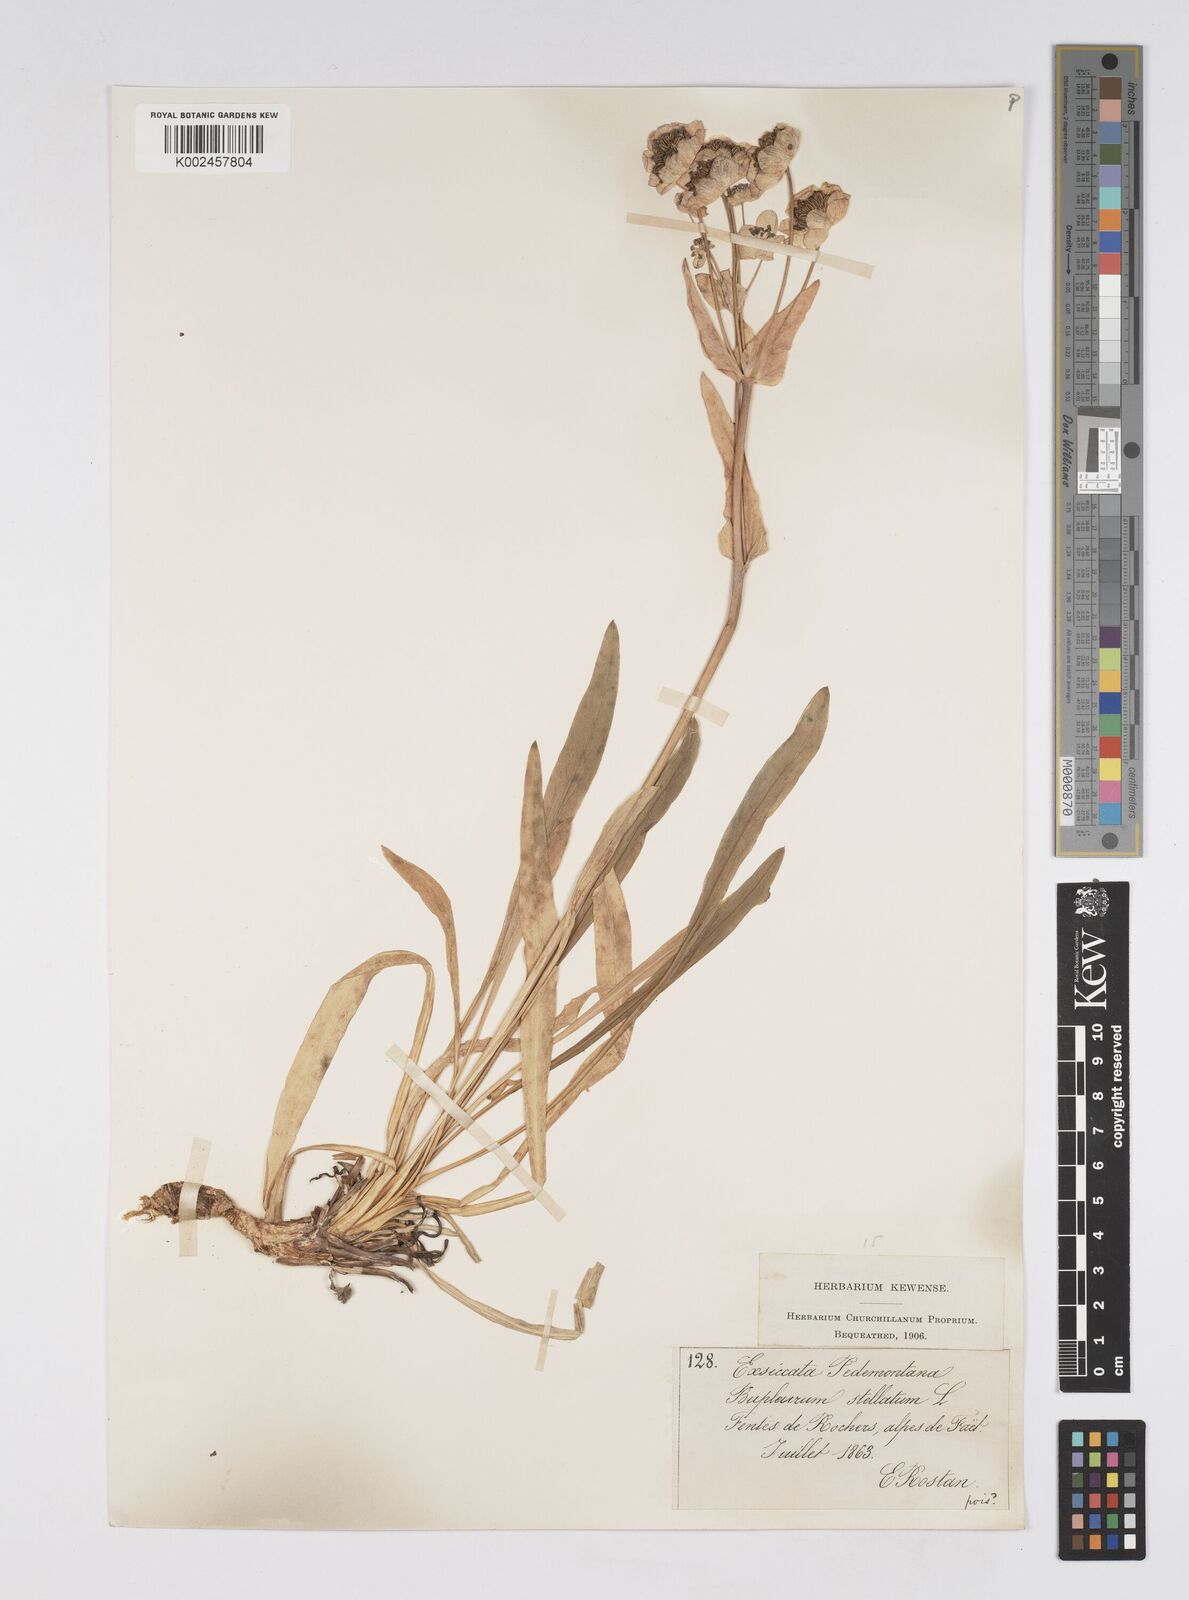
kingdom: Plantae
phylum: Tracheophyta
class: Magnoliopsida
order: Apiales
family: Apiaceae
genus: Bupleurum
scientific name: Bupleurum stellatum
